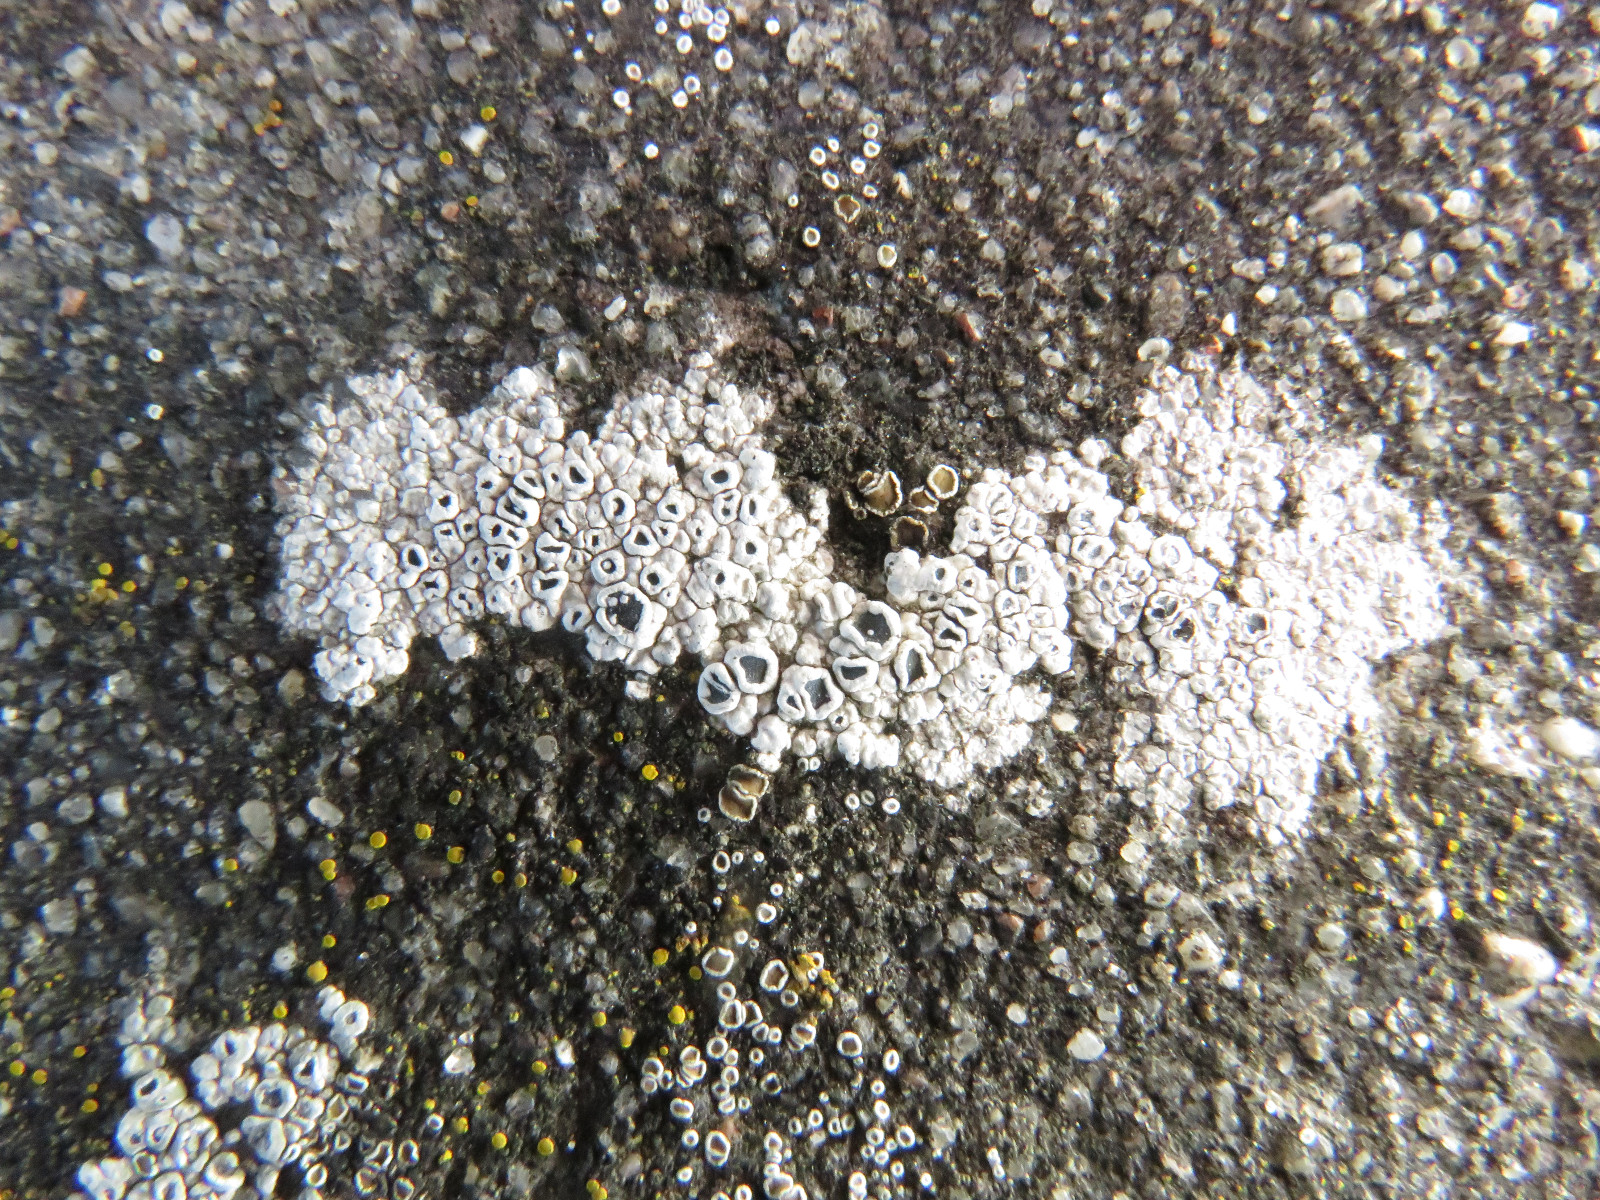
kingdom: Fungi
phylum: Ascomycota
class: Lecanoromycetes
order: Lecanorales
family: Lecanoraceae
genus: Polyozosia
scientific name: Polyozosia dispersa
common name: spredt kantskivelav
